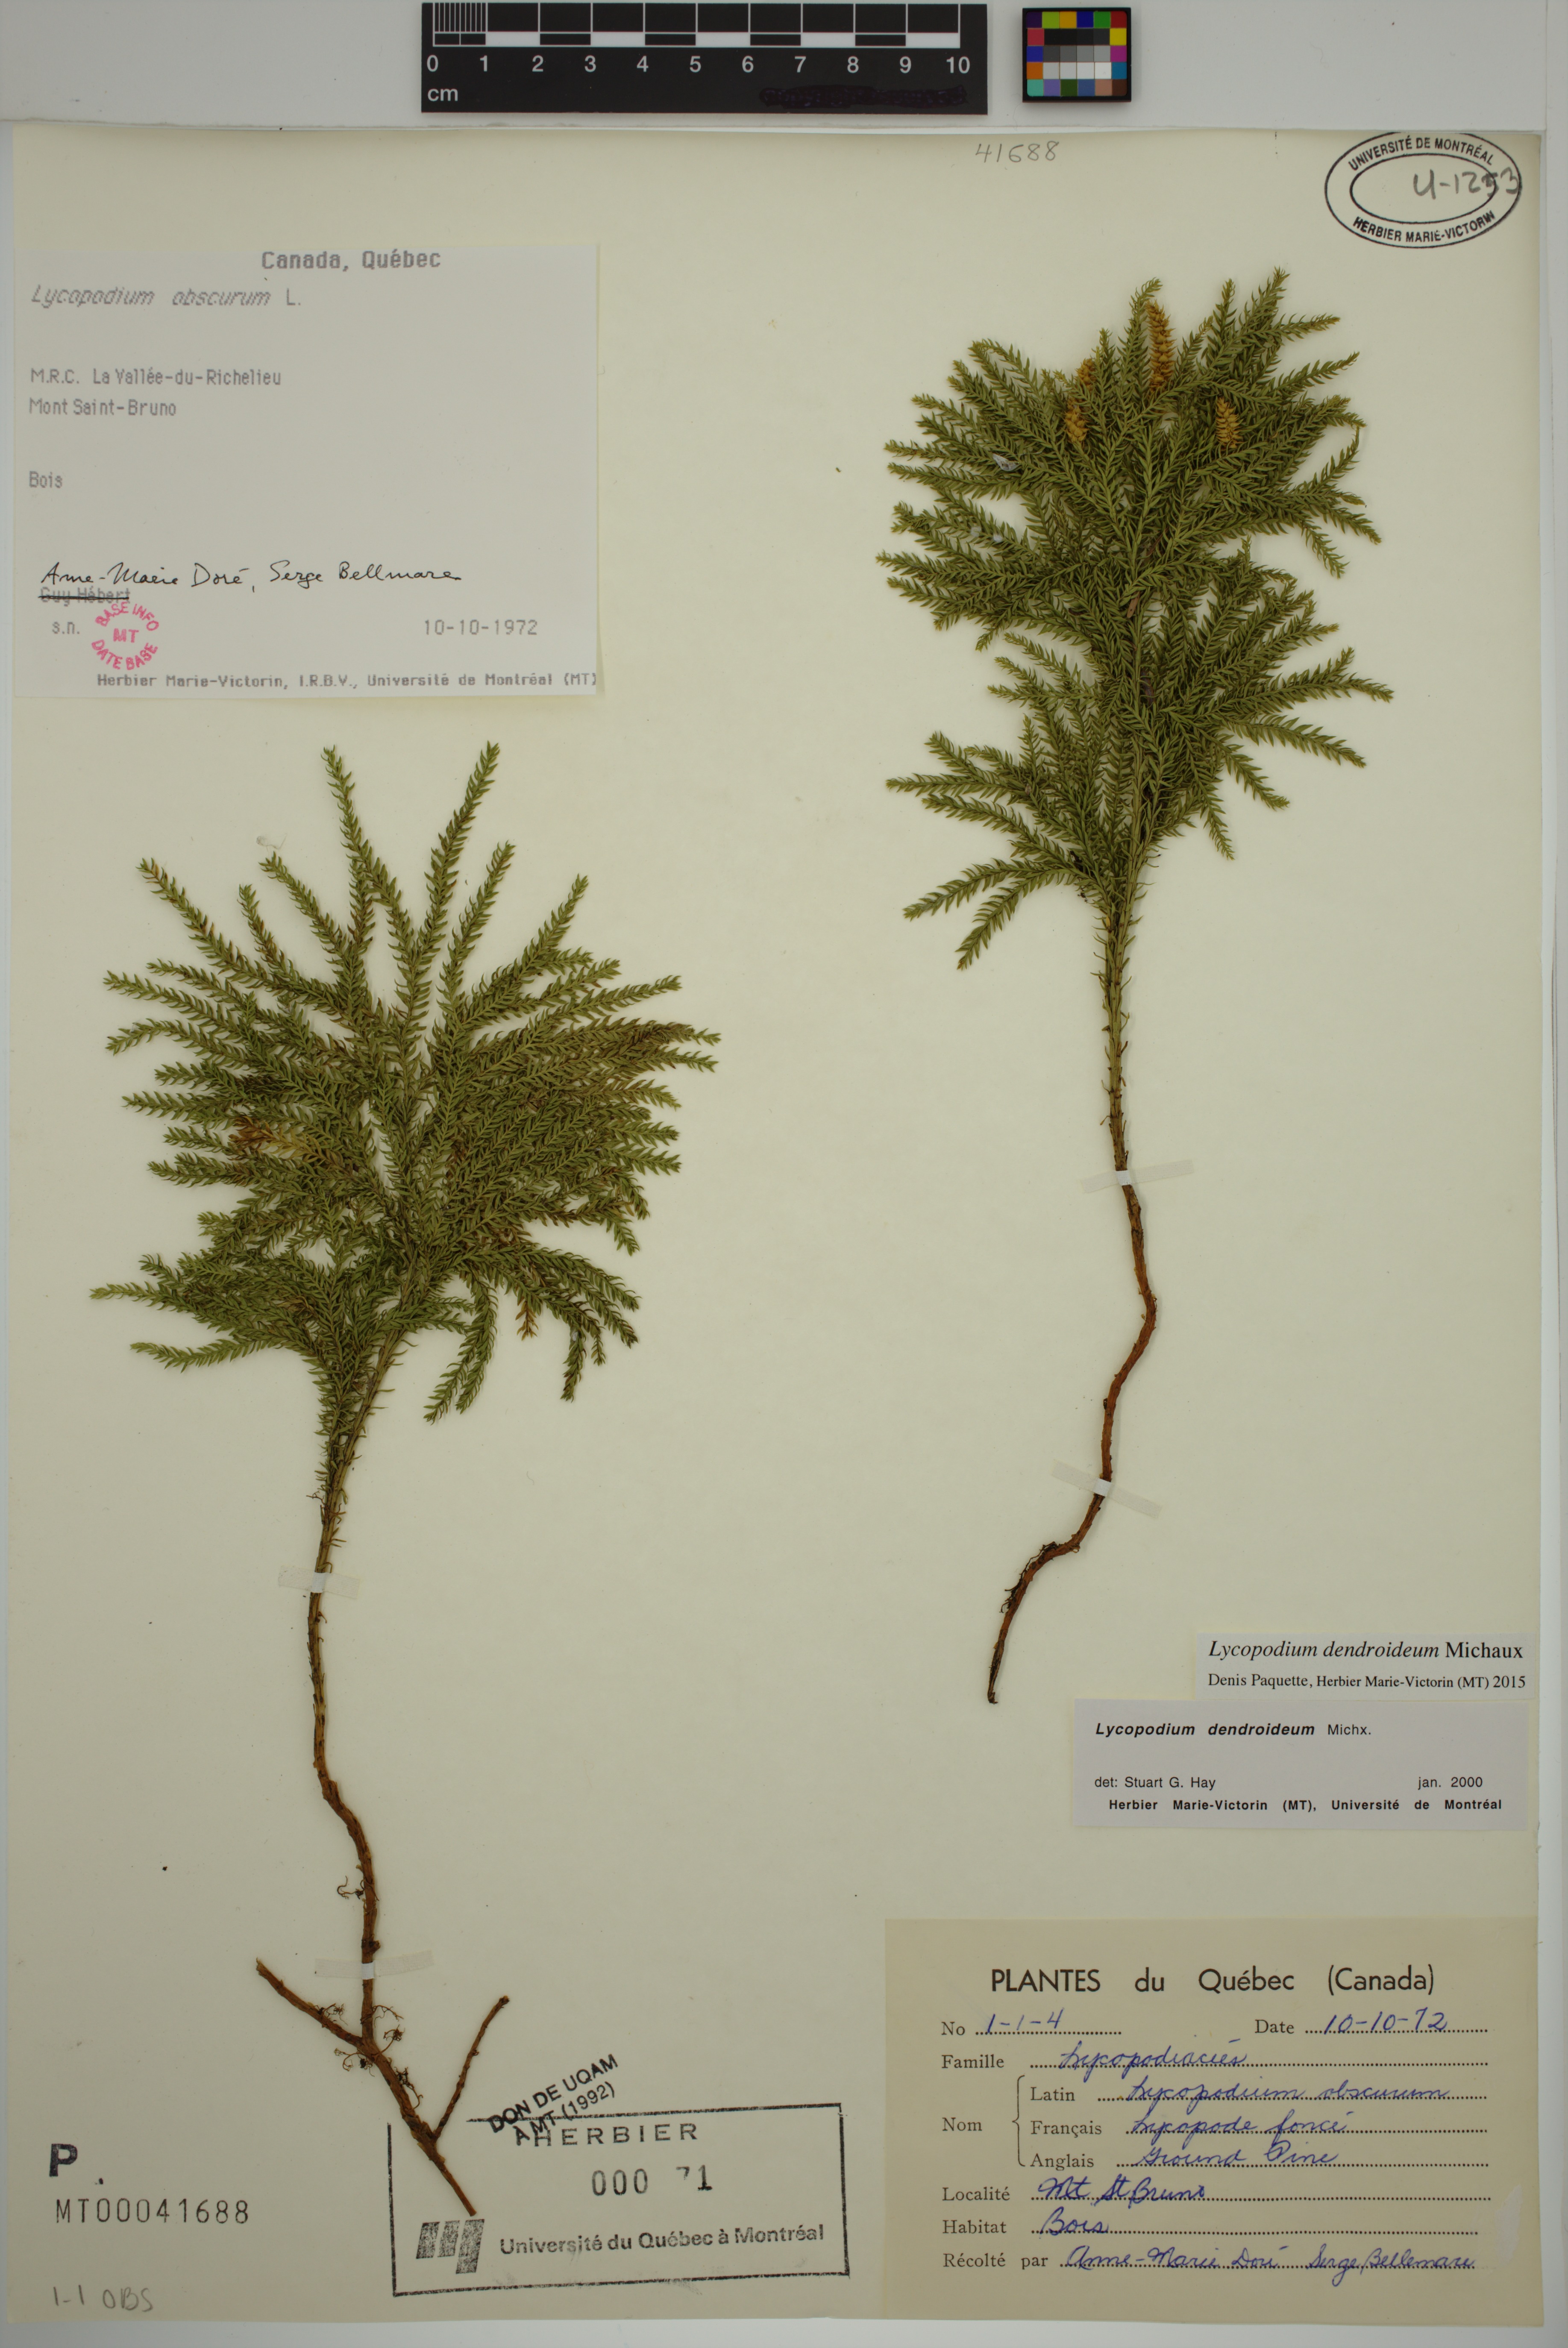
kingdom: Plantae
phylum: Tracheophyta
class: Lycopodiopsida
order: Lycopodiales
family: Lycopodiaceae
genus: Dendrolycopodium
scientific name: Dendrolycopodium dendroideum
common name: Northern tree-clubmoss
